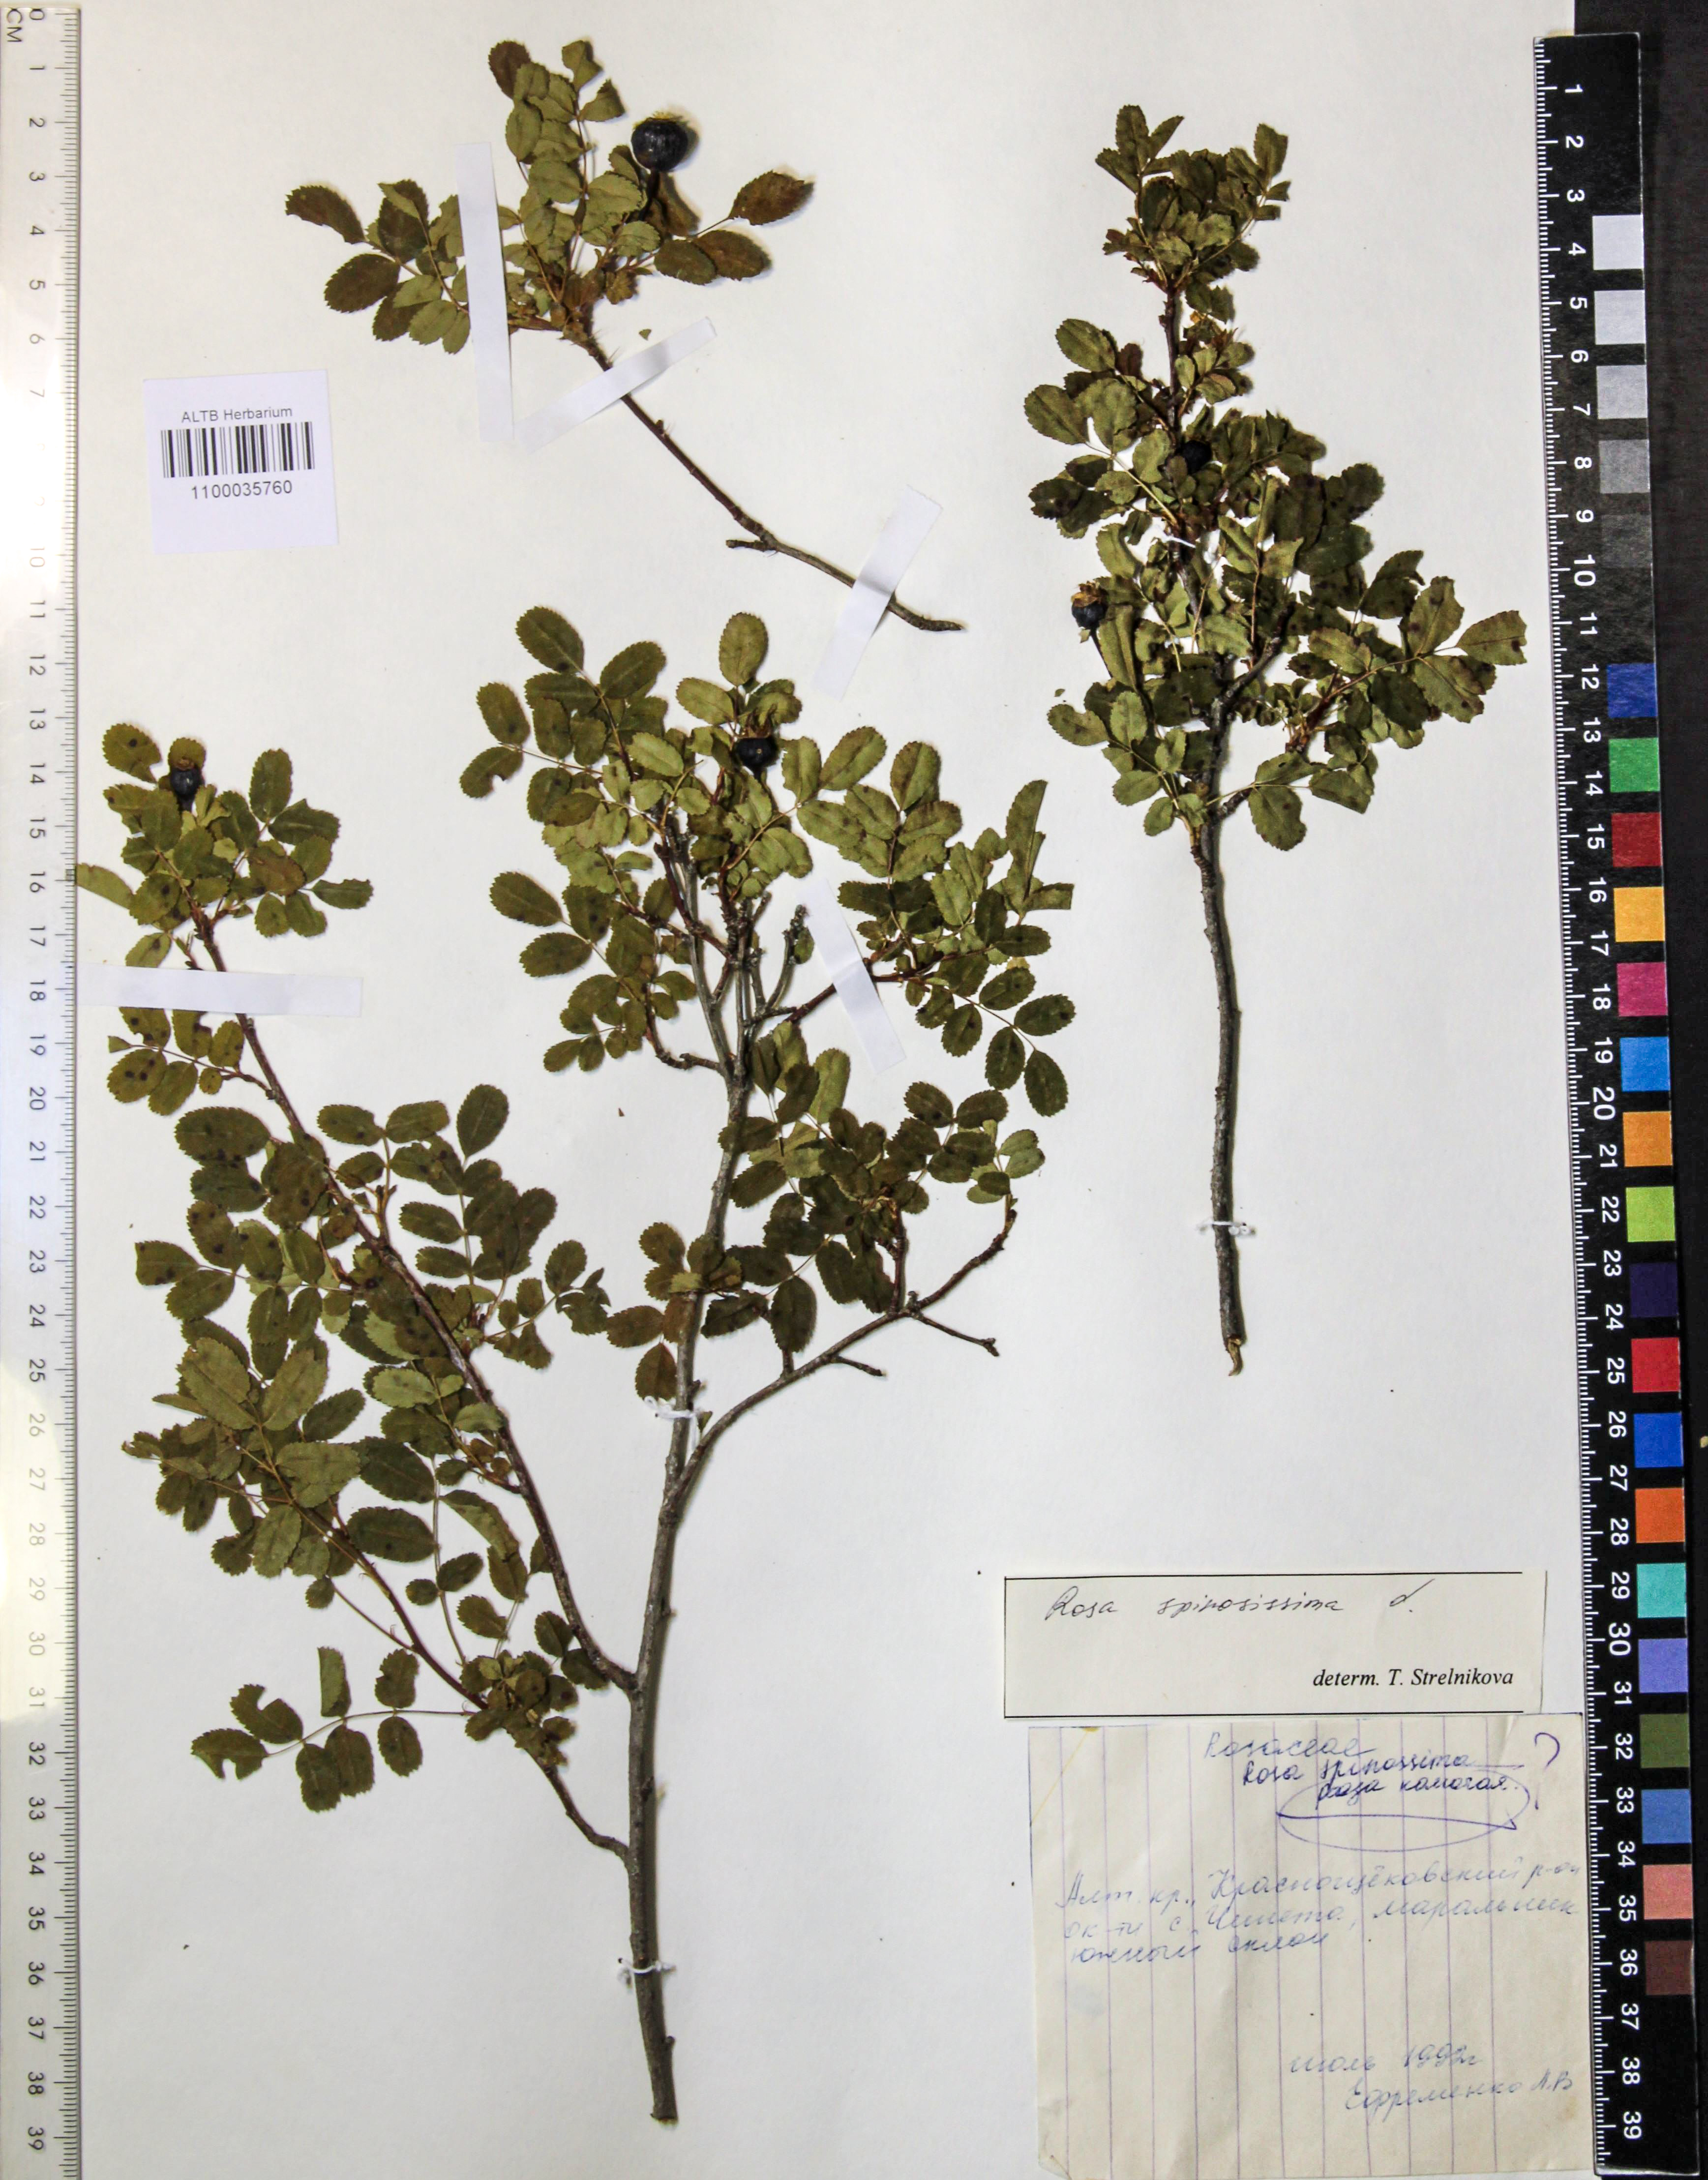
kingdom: Plantae
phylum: Tracheophyta
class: Magnoliopsida
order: Rosales
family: Rosaceae
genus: Rosa
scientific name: Rosa spinosissima
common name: Burnet rose
